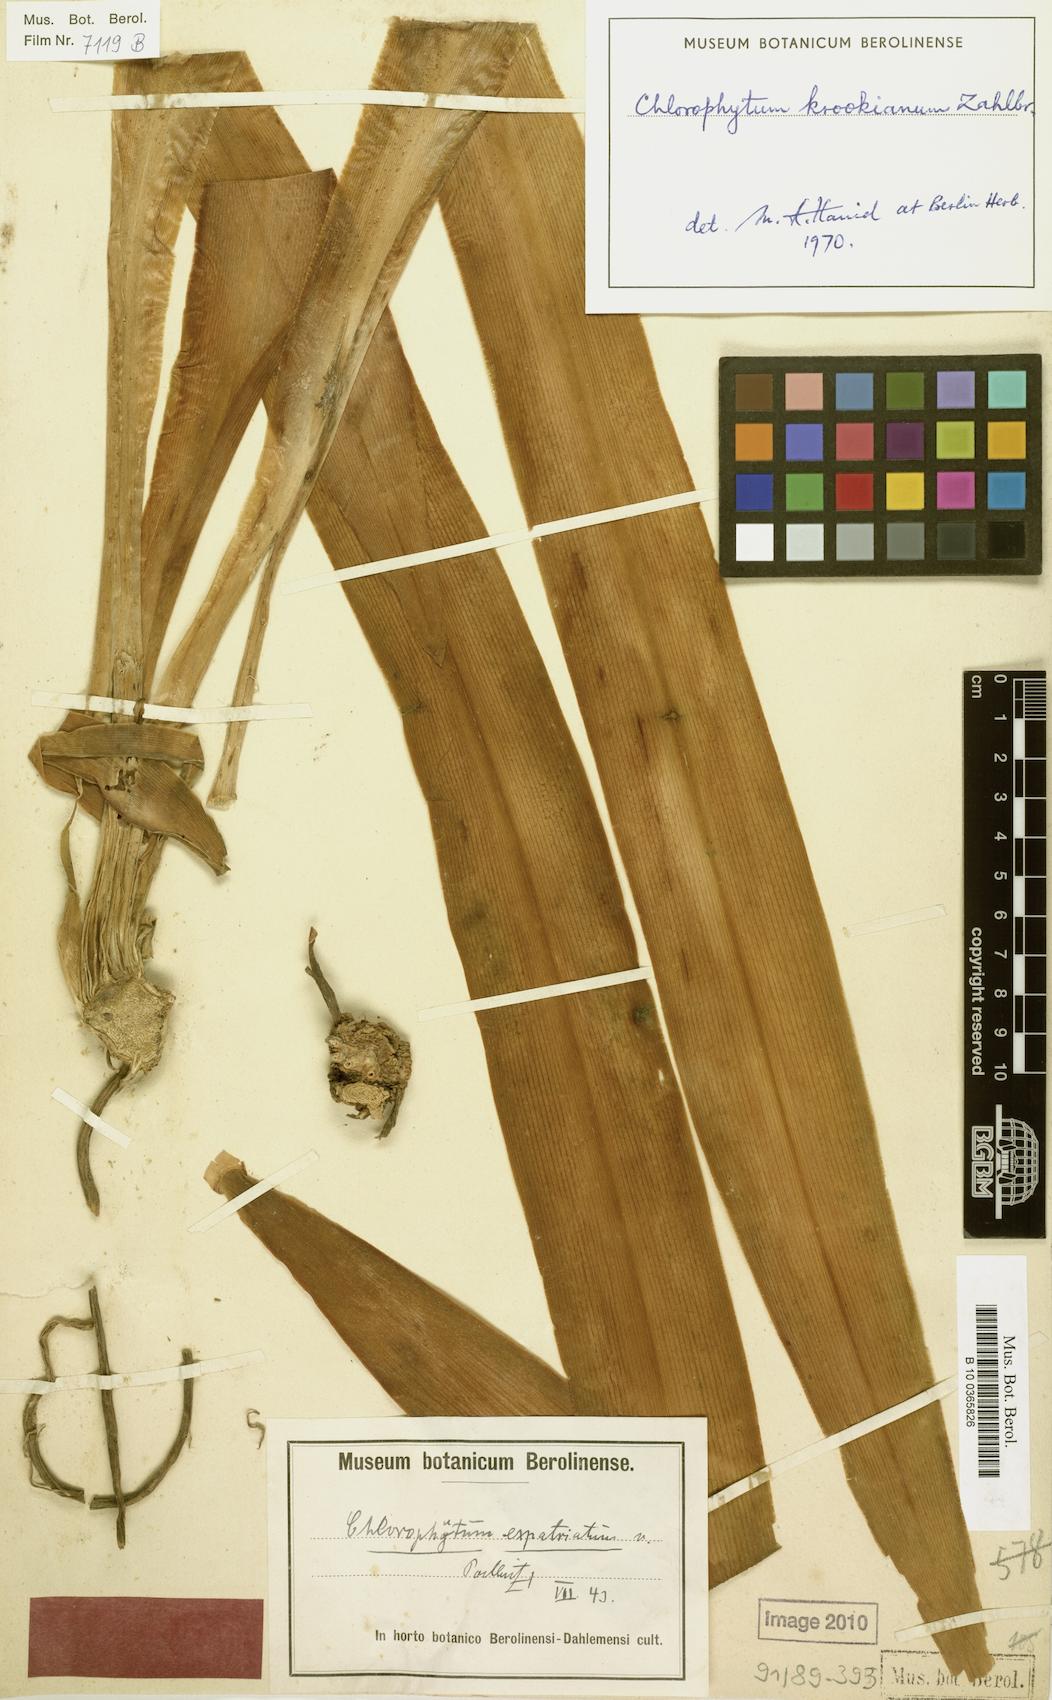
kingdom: Plantae
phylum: Tracheophyta
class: Liliopsida
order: Asparagales
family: Asparagaceae
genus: Chlorophytum
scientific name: Chlorophytum krookianum
